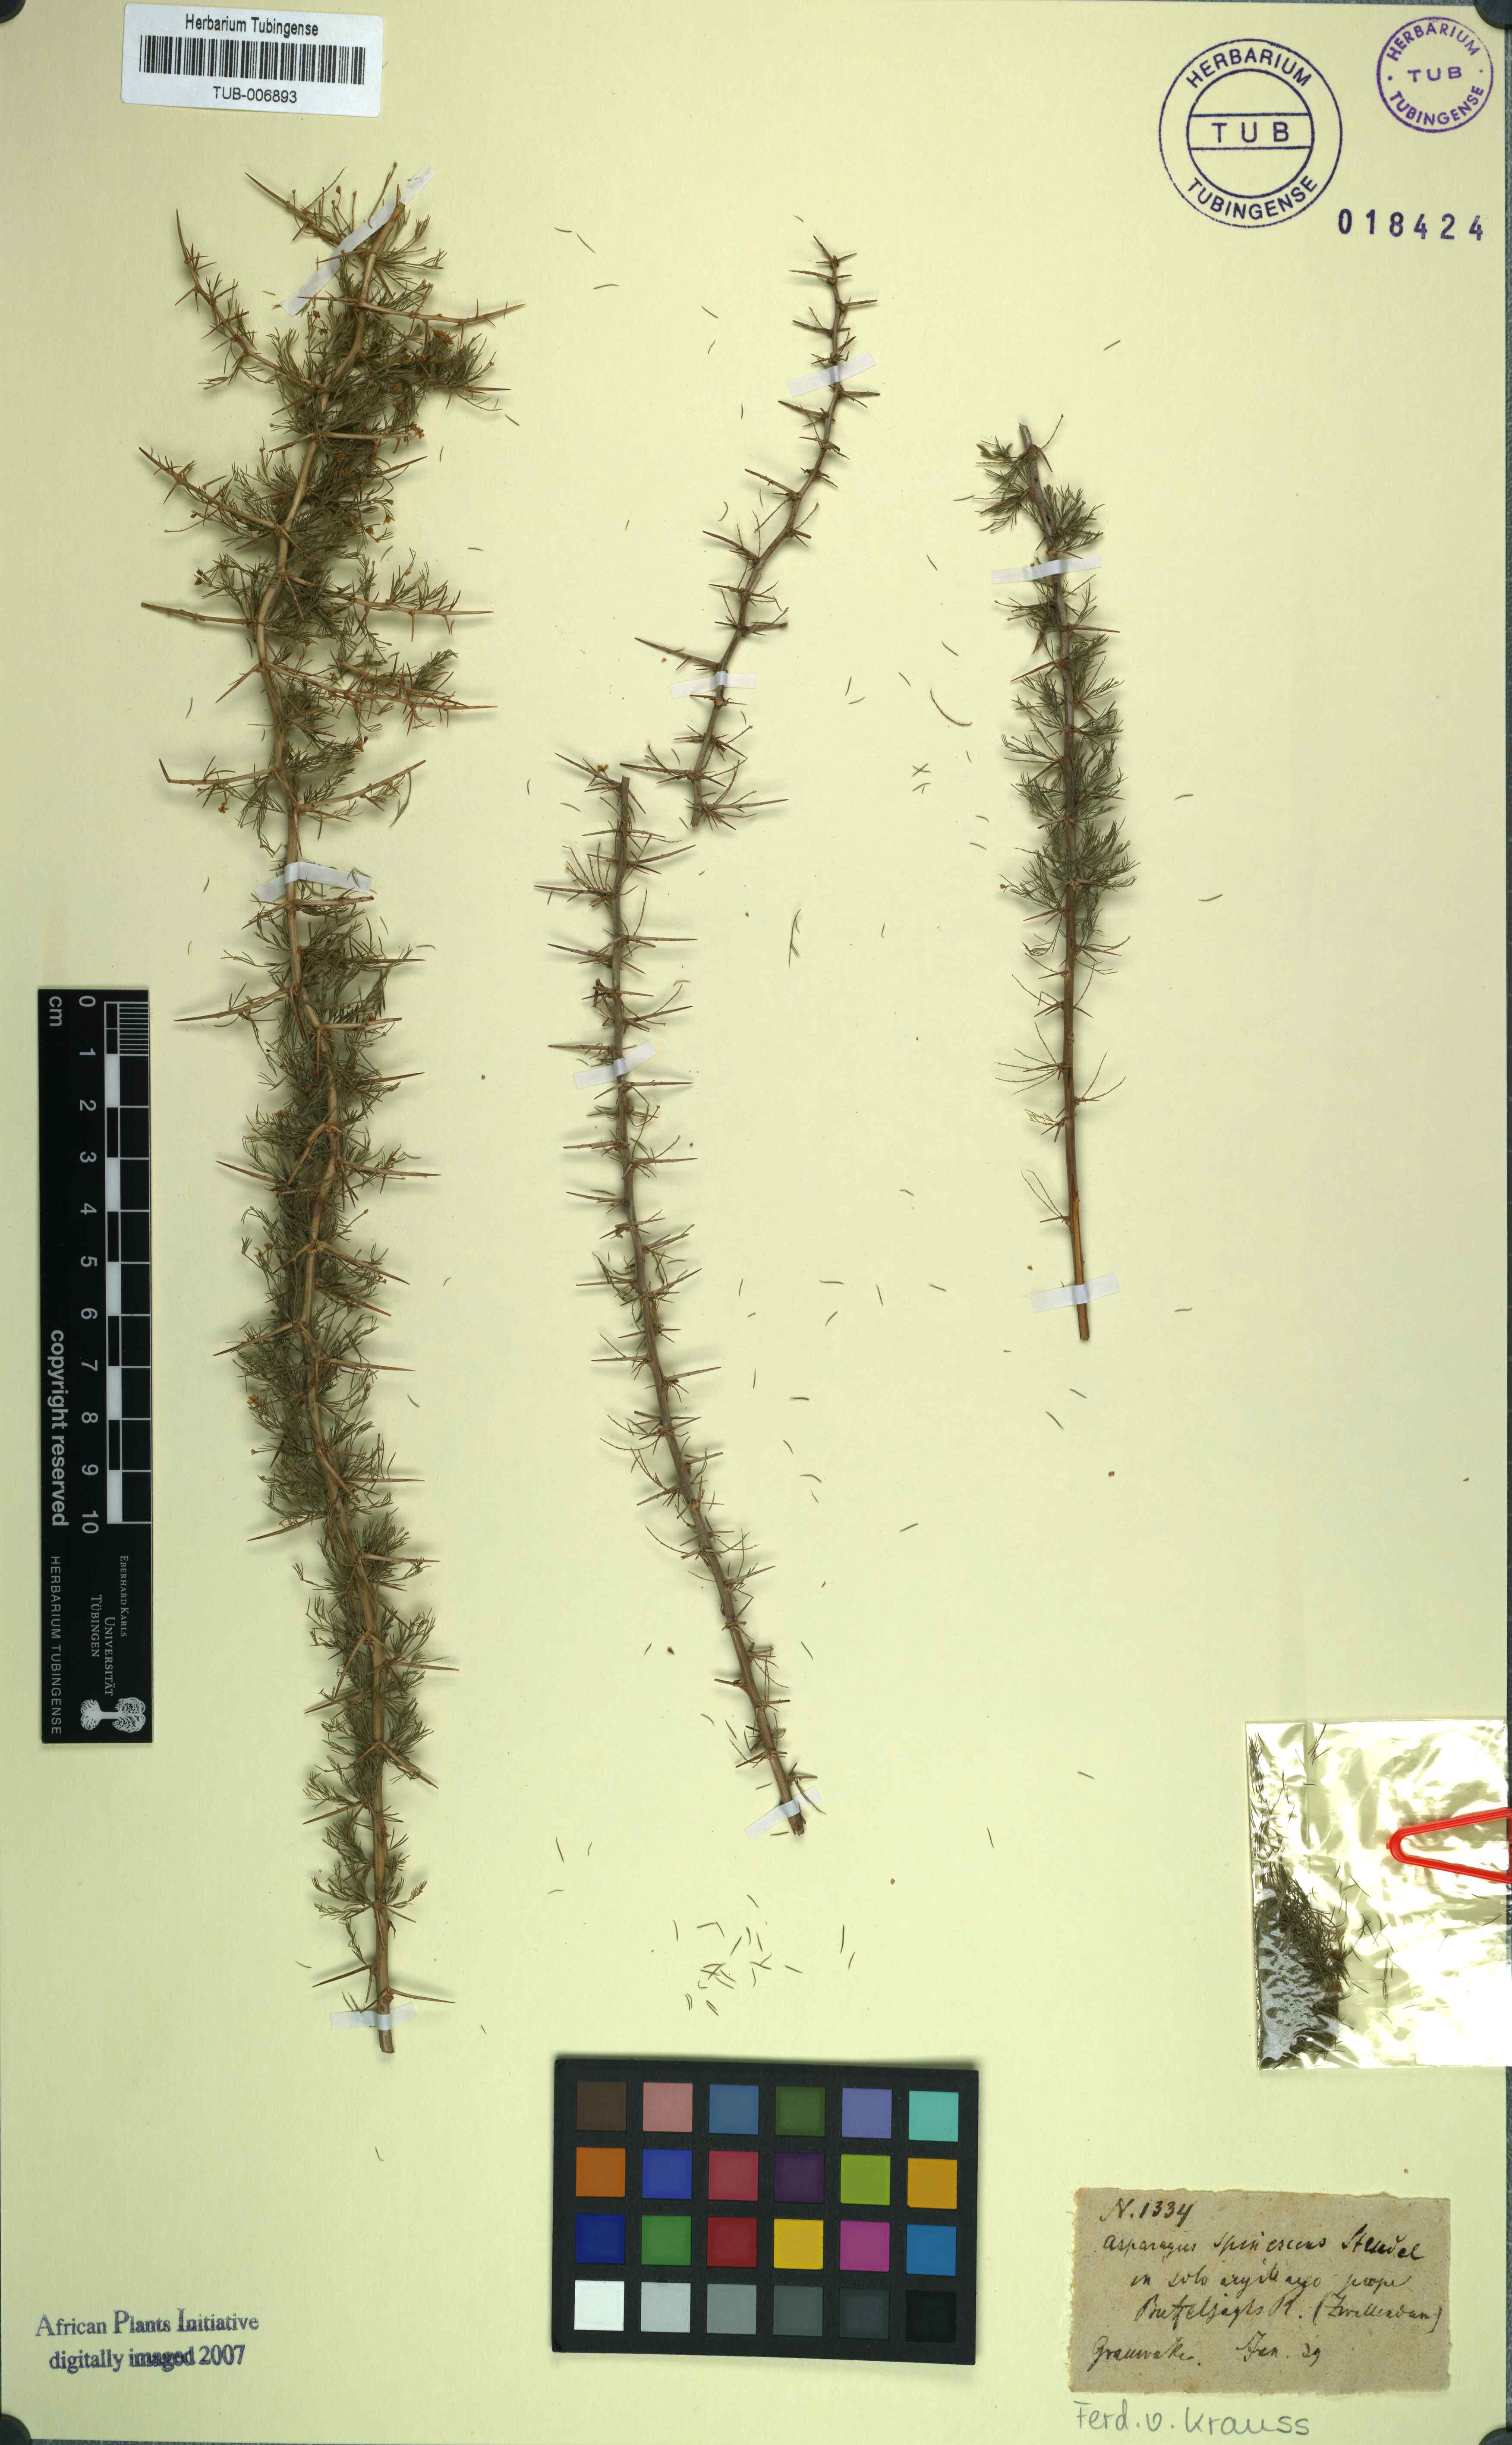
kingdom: Plantae
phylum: Tracheophyta
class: Liliopsida
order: Asparagales
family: Asparagaceae
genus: Asparagus
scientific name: Asparagus spinescens
